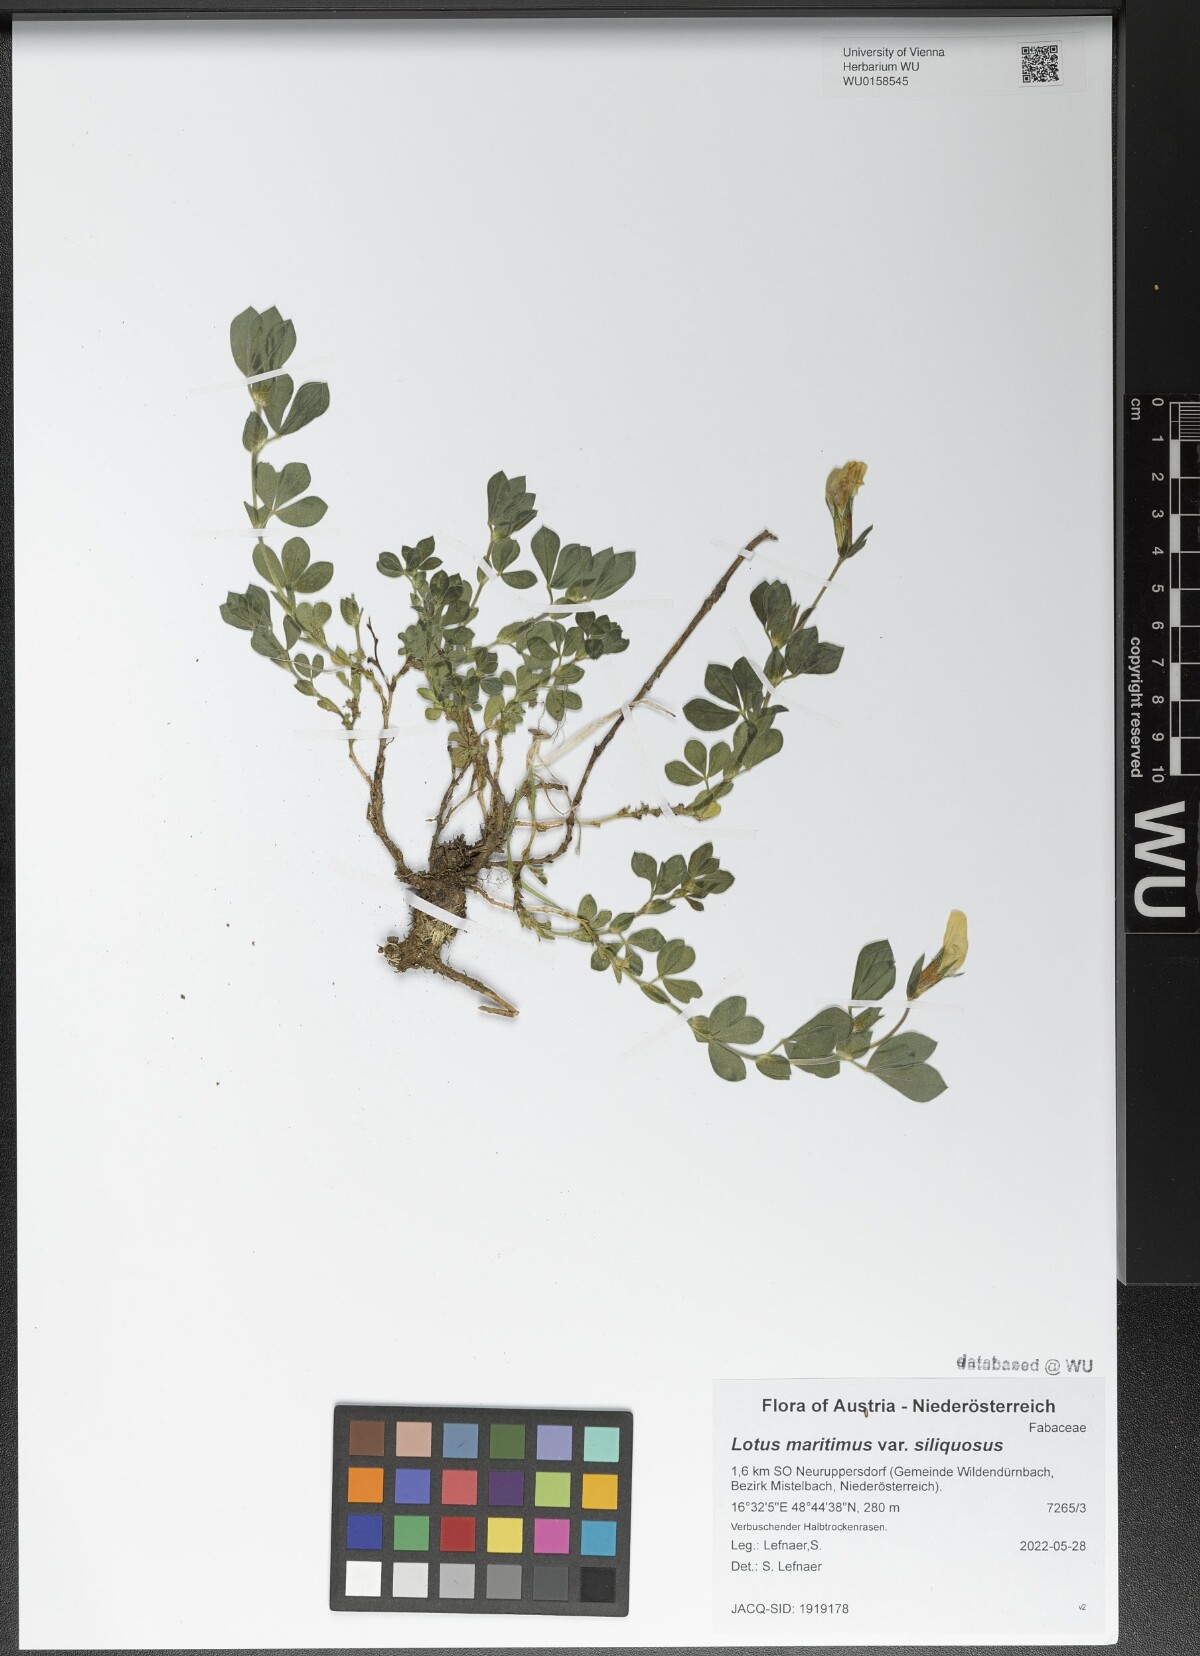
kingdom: Plantae
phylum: Tracheophyta
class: Magnoliopsida
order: Fabales
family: Fabaceae
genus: Lathyrus
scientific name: Lathyrus inconspicuus
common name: Inconspicuous pea
